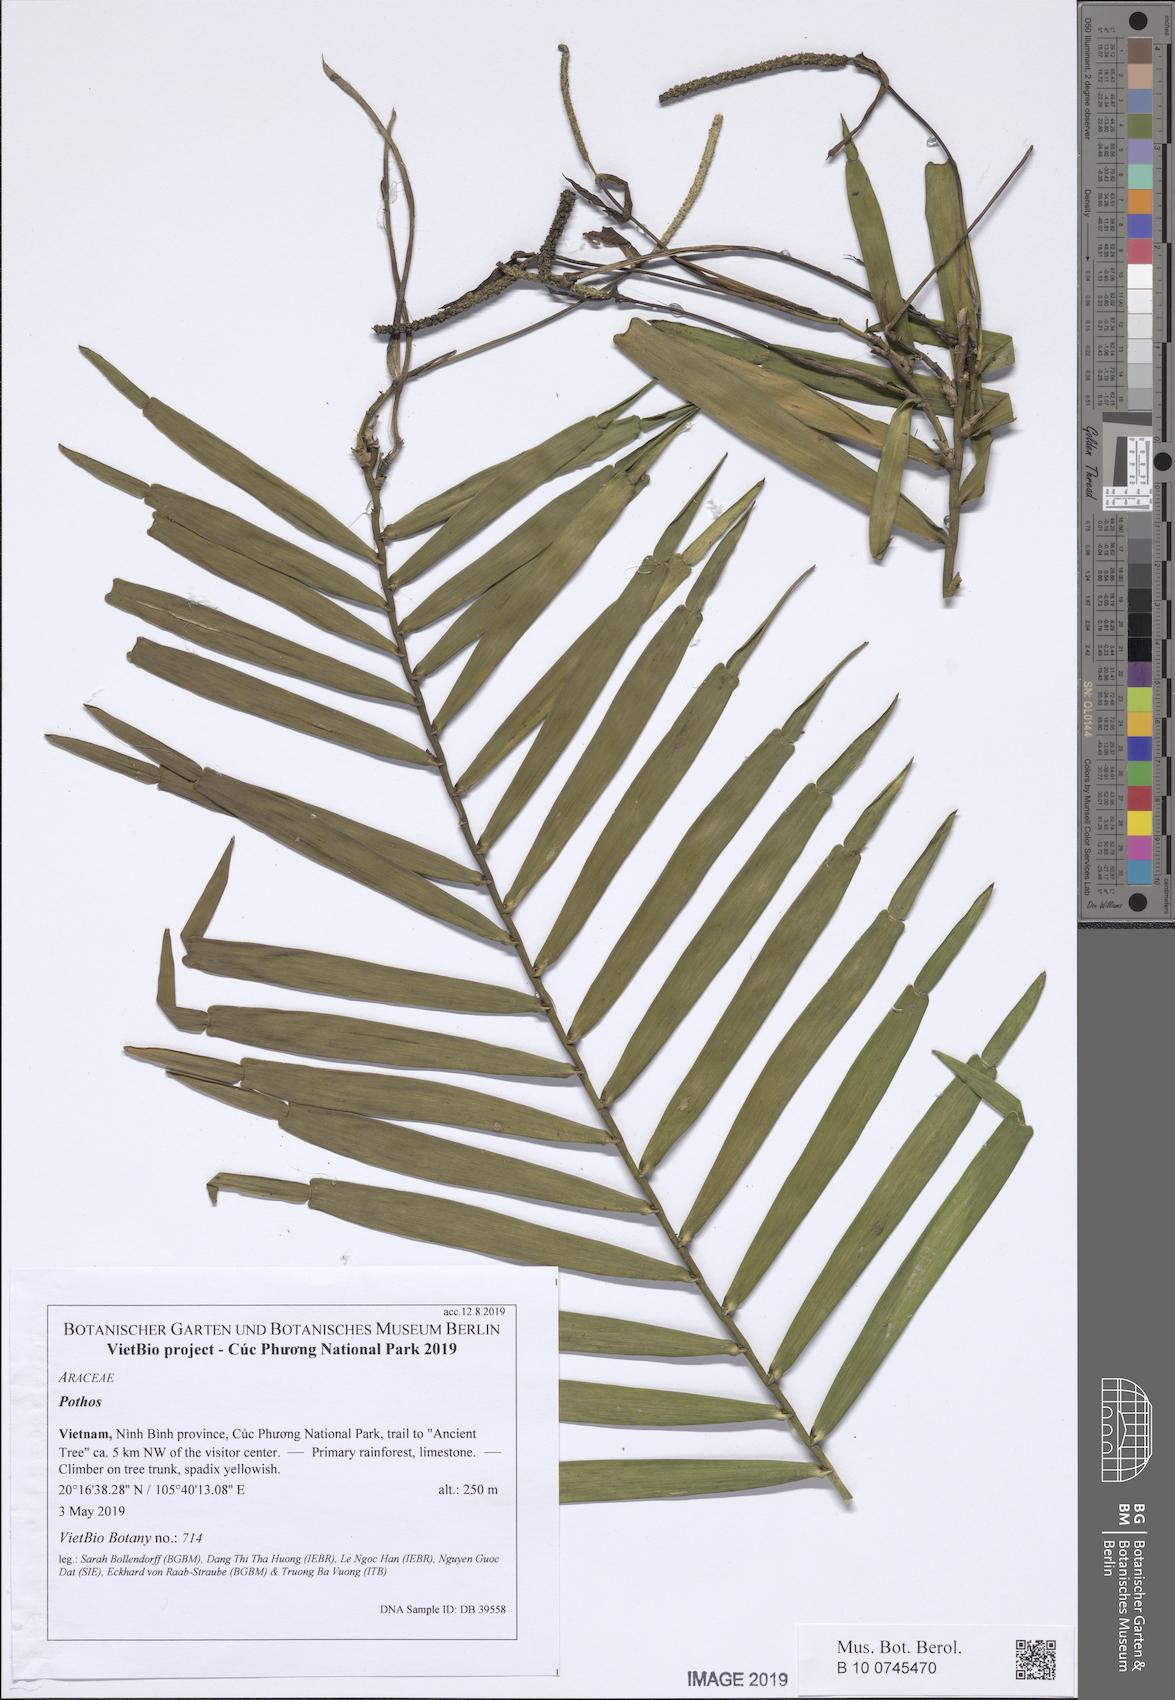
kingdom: Plantae
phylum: Tracheophyta
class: Liliopsida
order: Alismatales
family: Araceae
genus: Pothos
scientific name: Pothos repens
